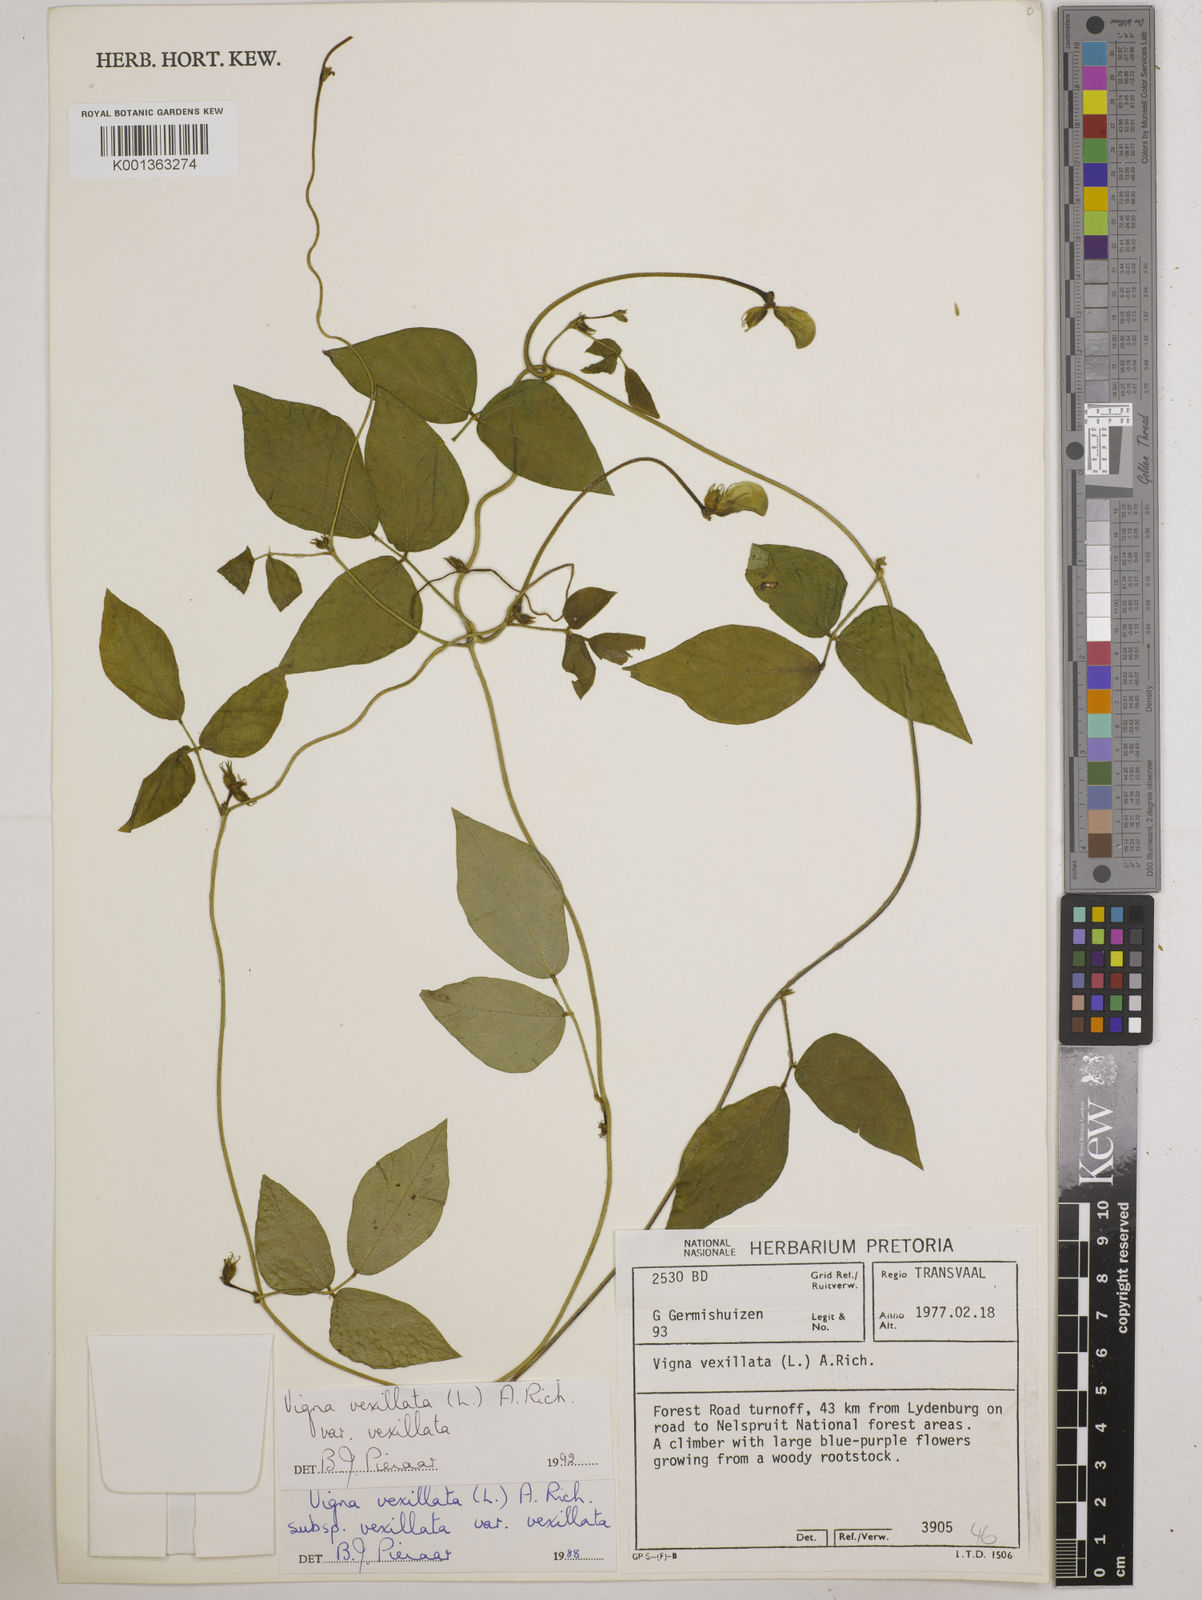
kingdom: Plantae
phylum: Tracheophyta
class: Magnoliopsida
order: Fabales
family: Fabaceae
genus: Vigna
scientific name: Vigna
